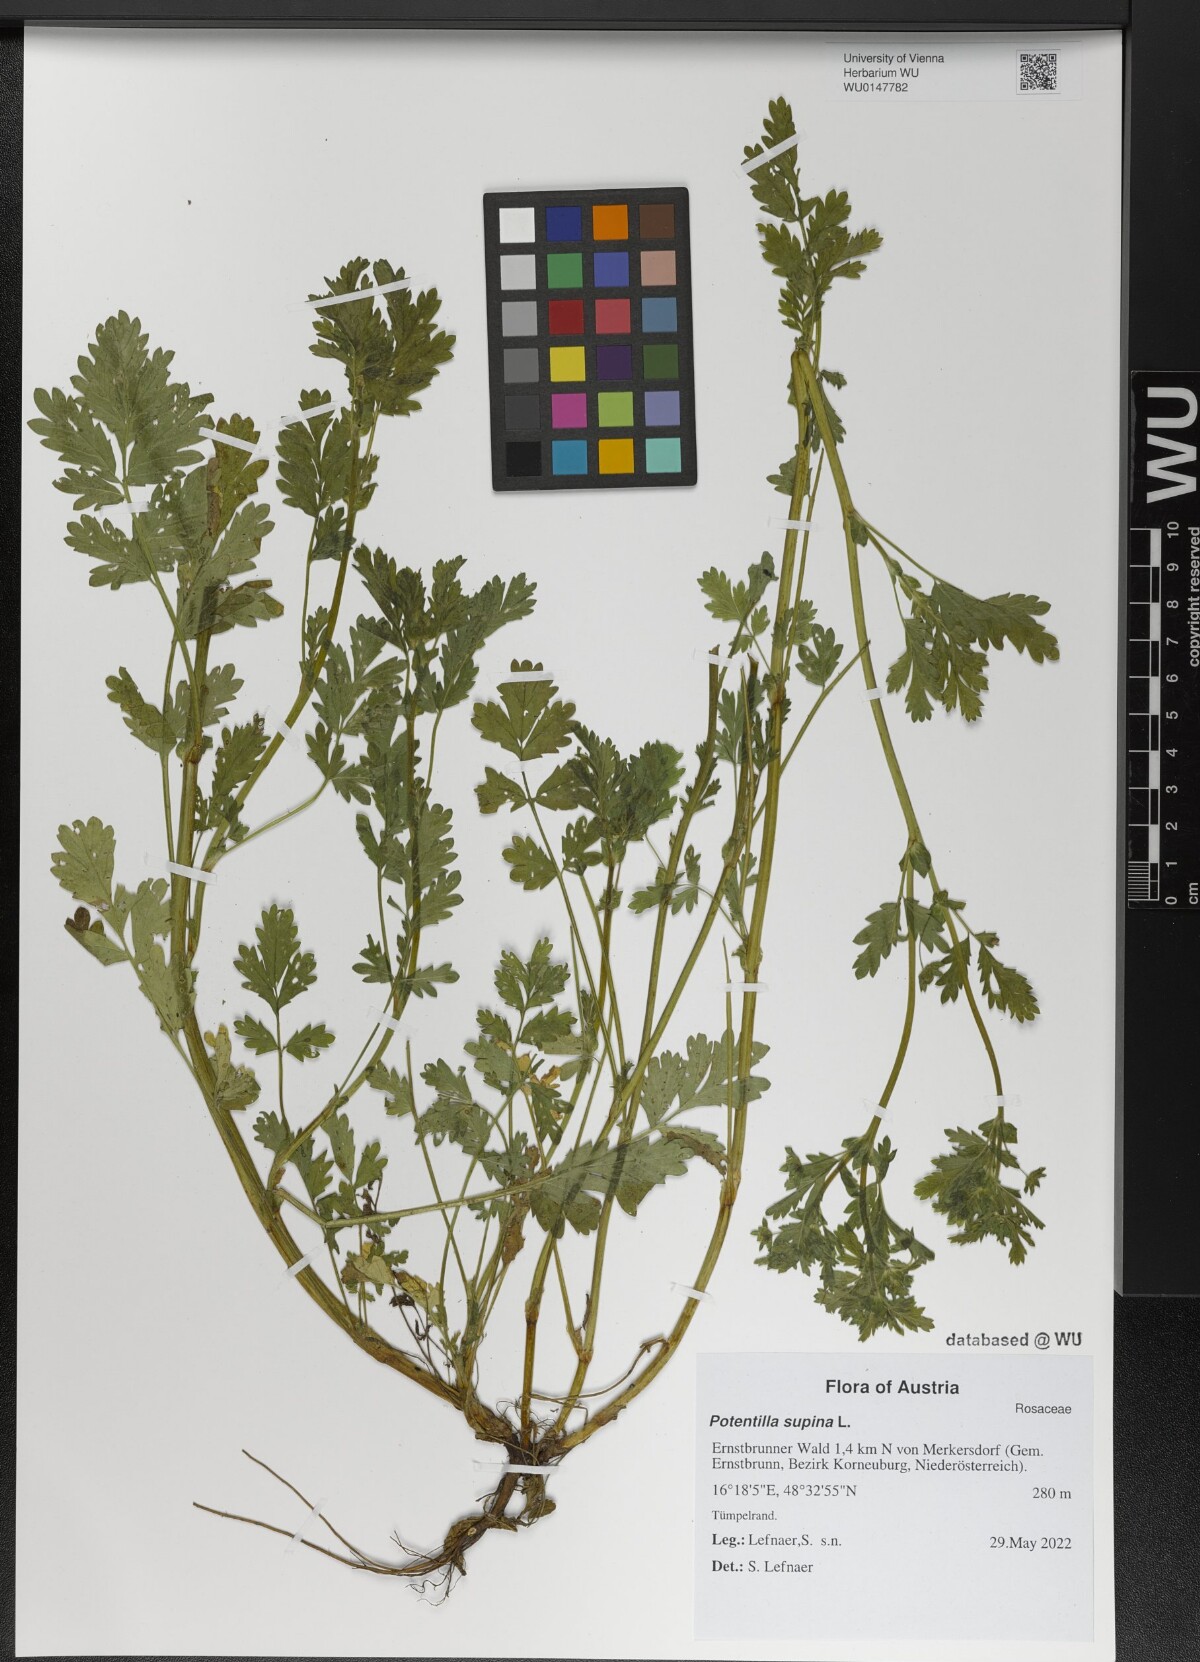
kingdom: Plantae
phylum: Tracheophyta
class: Magnoliopsida
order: Rosales
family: Rosaceae
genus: Potentilla
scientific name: Potentilla supina
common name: Prostrate cinquefoil
